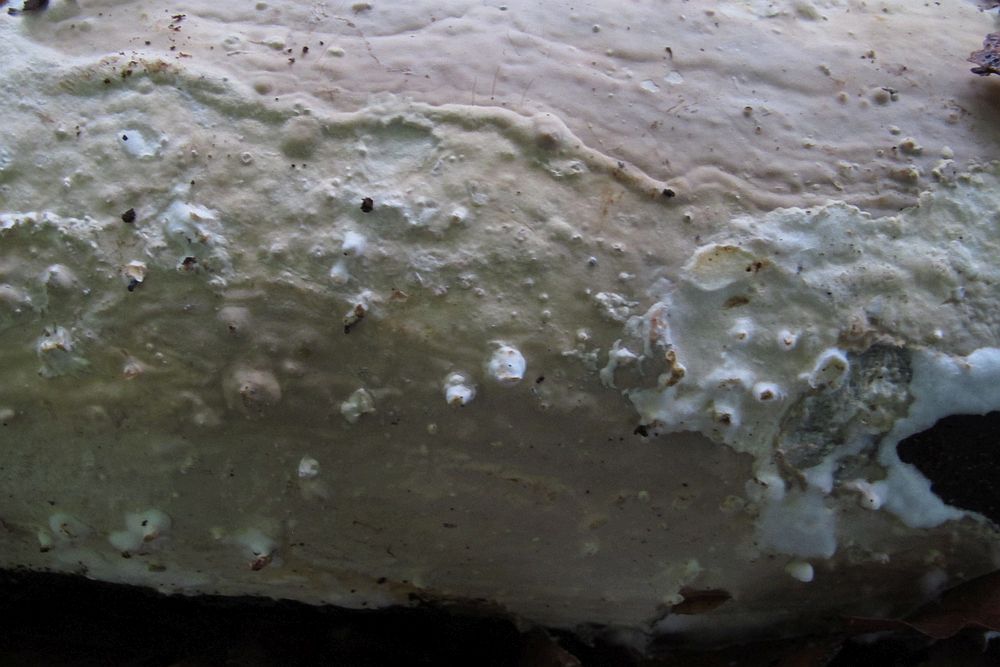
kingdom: Fungi
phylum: Basidiomycota
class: Agaricomycetes
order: Russulales
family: Peniophoraceae
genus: Scytinostroma
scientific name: Scytinostroma hemidichophyticum
